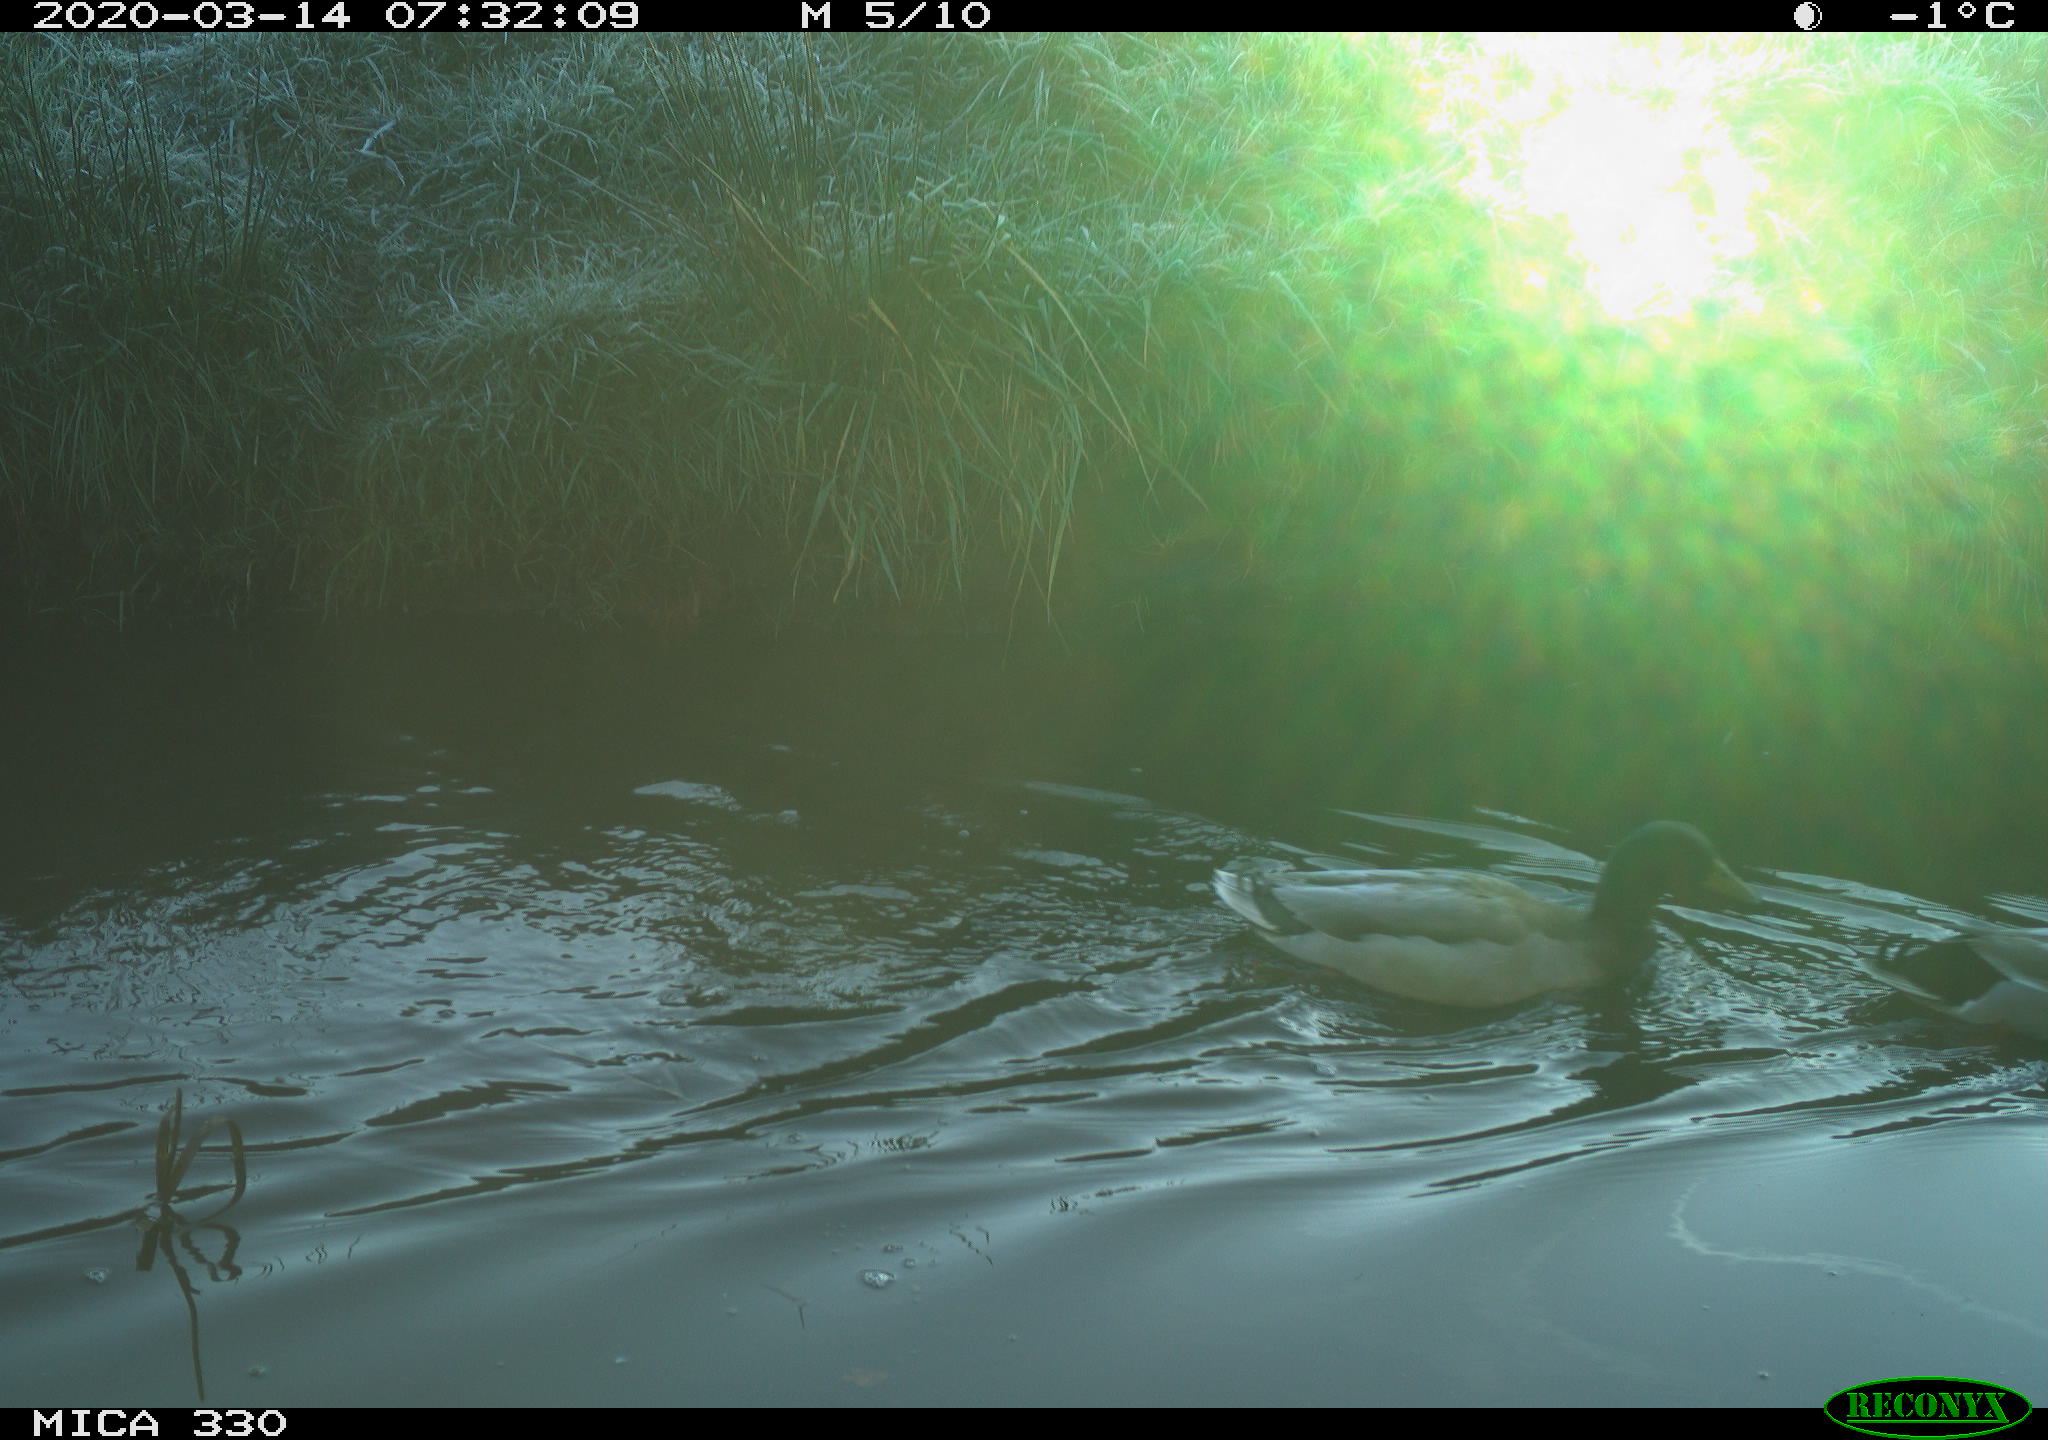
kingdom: Animalia
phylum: Chordata
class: Aves
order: Anseriformes
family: Anatidae
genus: Anas
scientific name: Anas platyrhynchos
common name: Mallard
